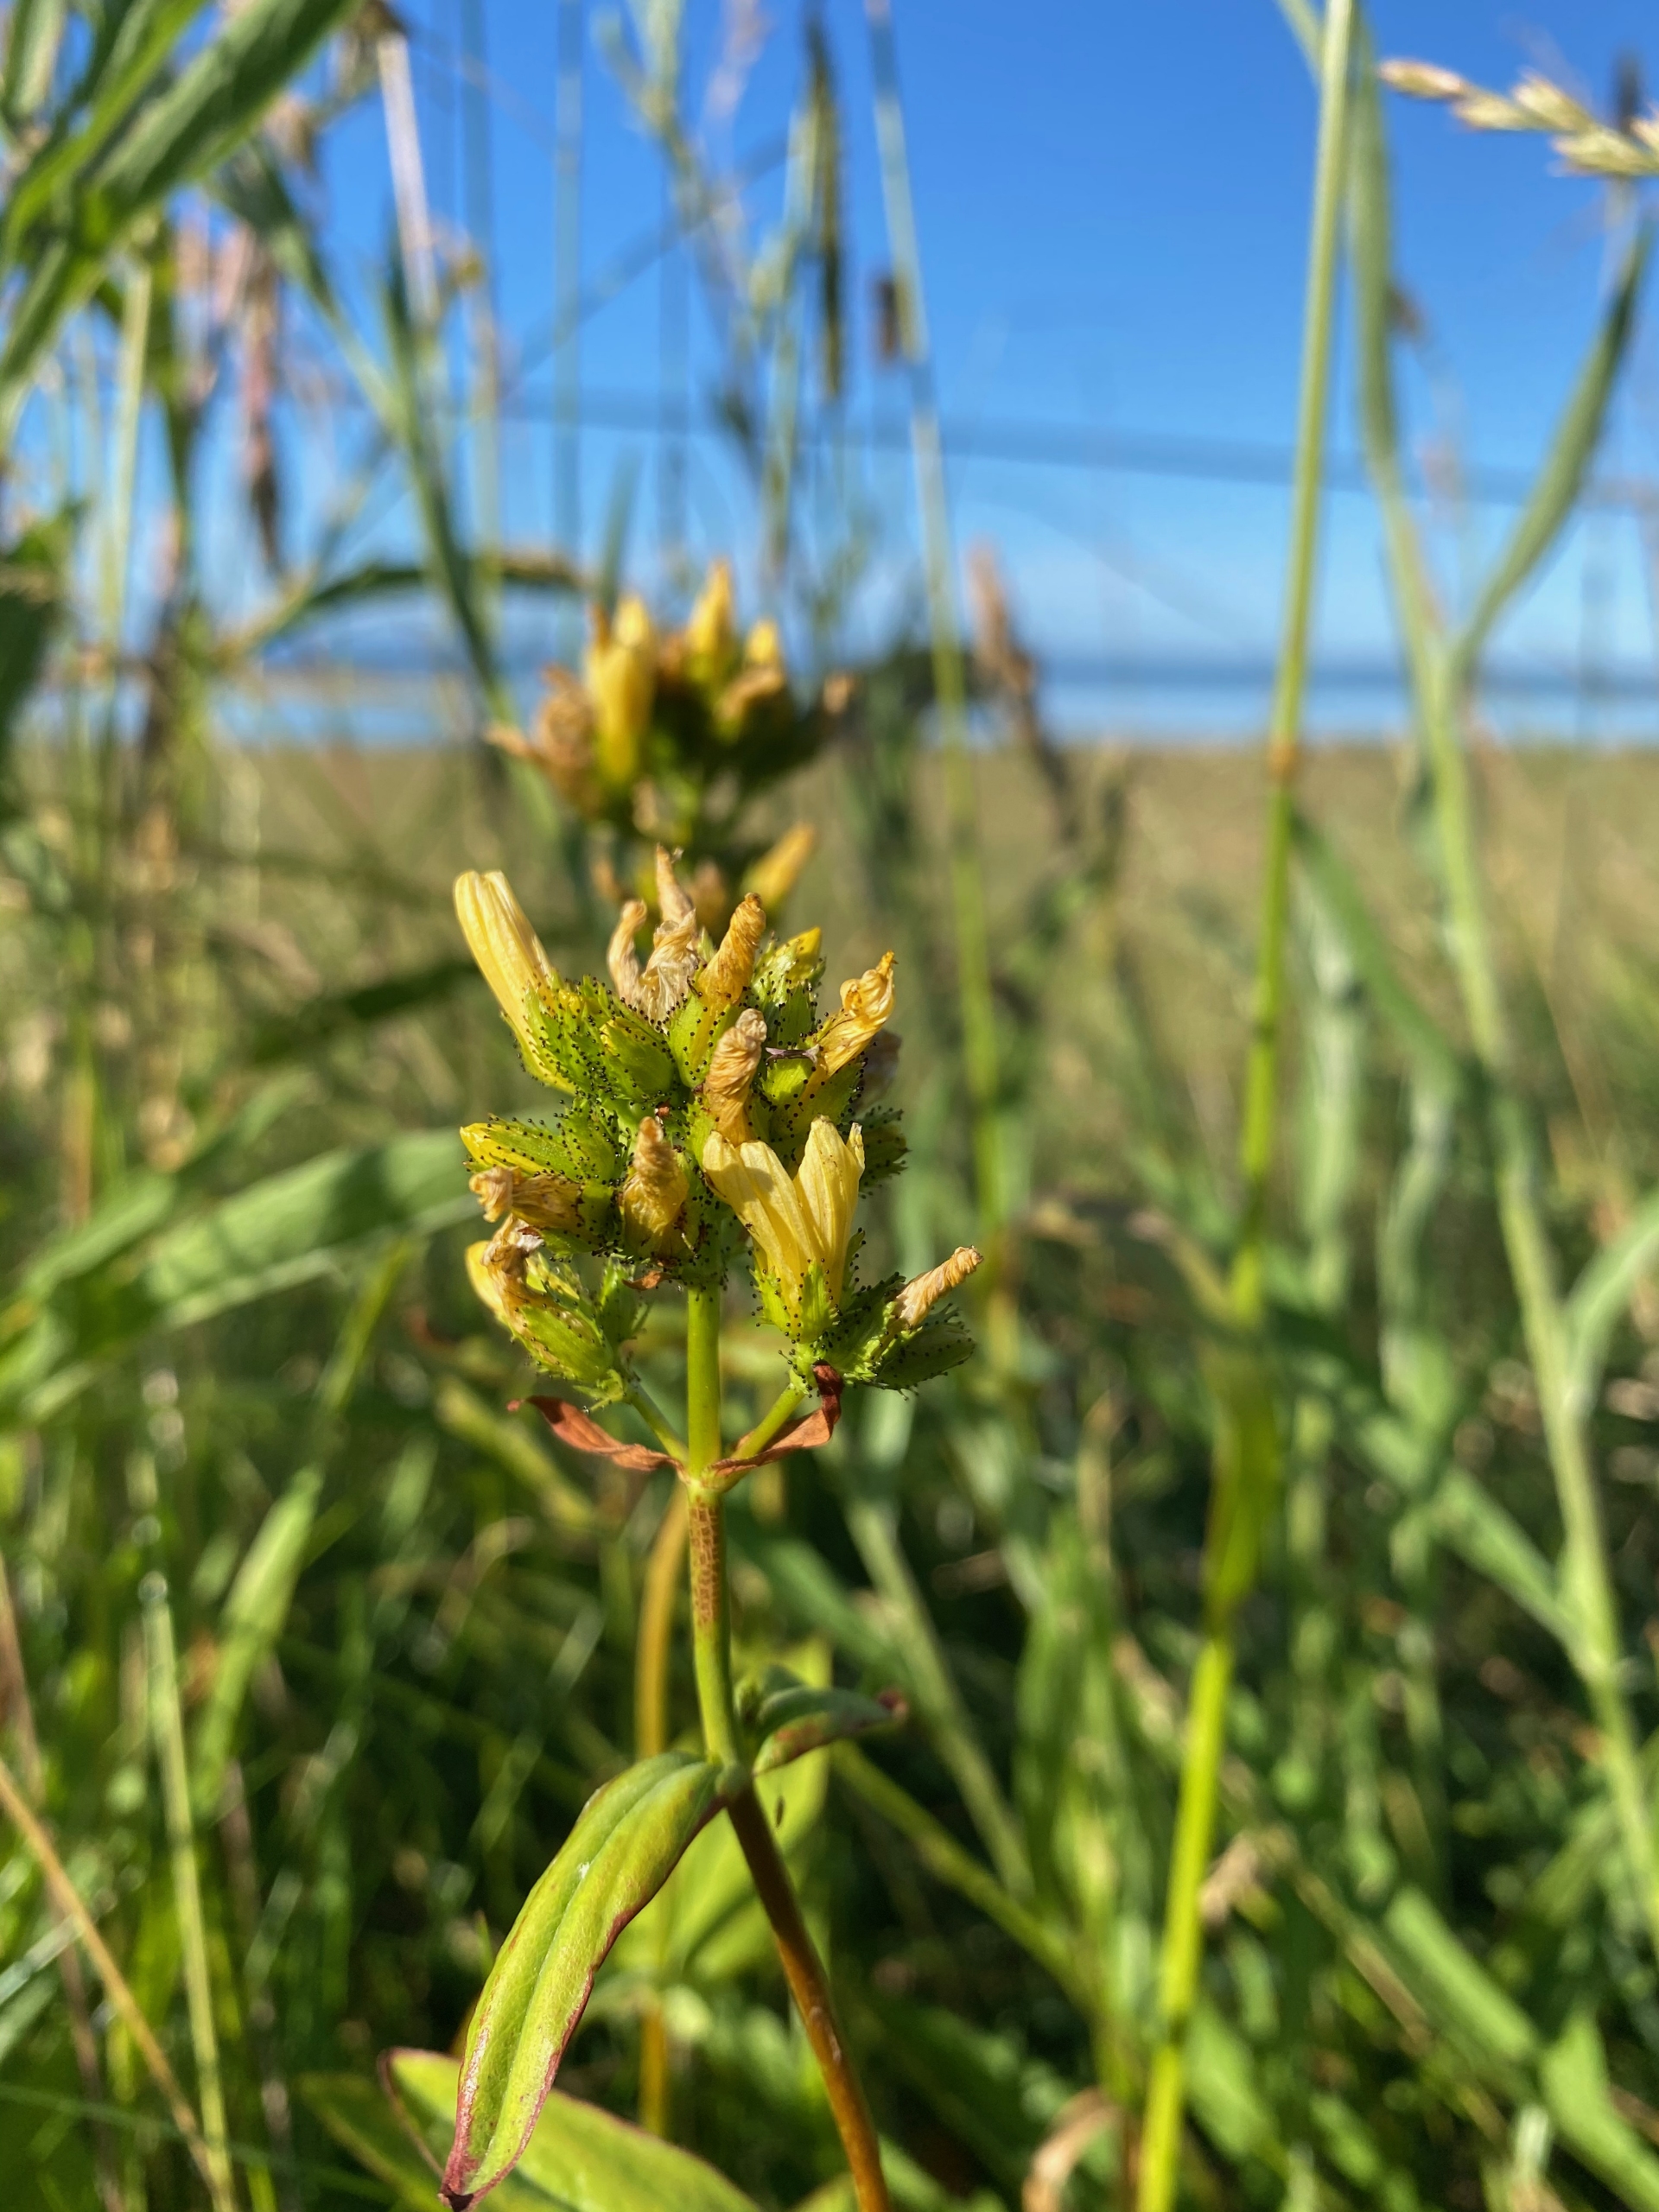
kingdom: Plantae
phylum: Tracheophyta
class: Magnoliopsida
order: Malpighiales
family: Hypericaceae
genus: Hypericum
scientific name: Hypericum montanum
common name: Bjerg-perikon
